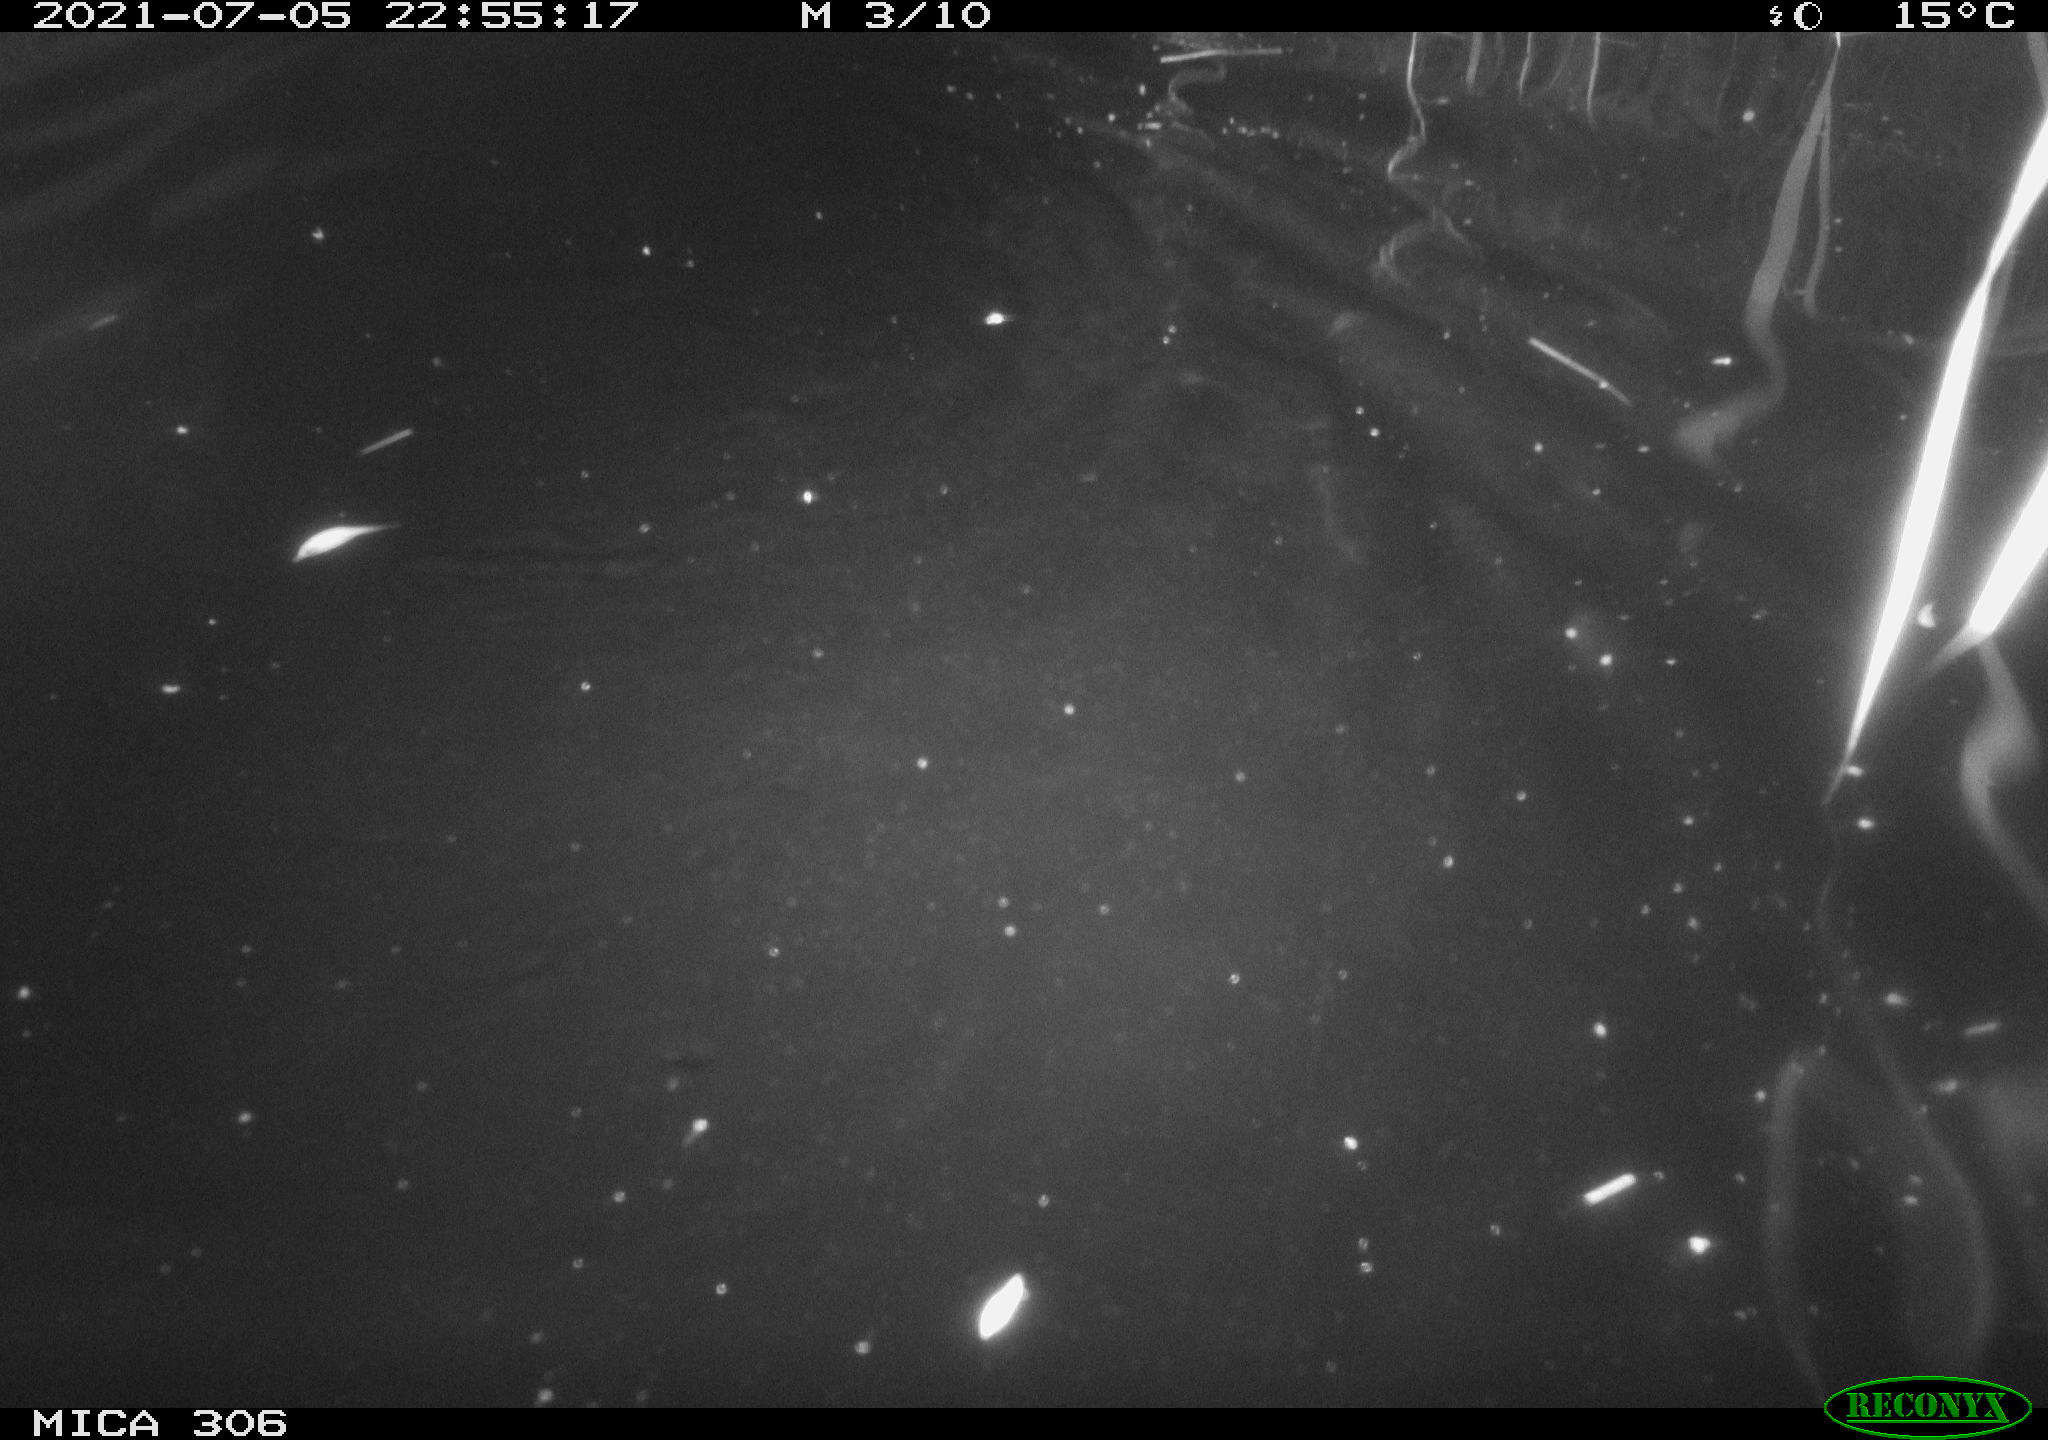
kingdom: Animalia
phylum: Chordata
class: Mammalia
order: Rodentia
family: Cricetidae
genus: Ondatra
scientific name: Ondatra zibethicus
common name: Muskrat
